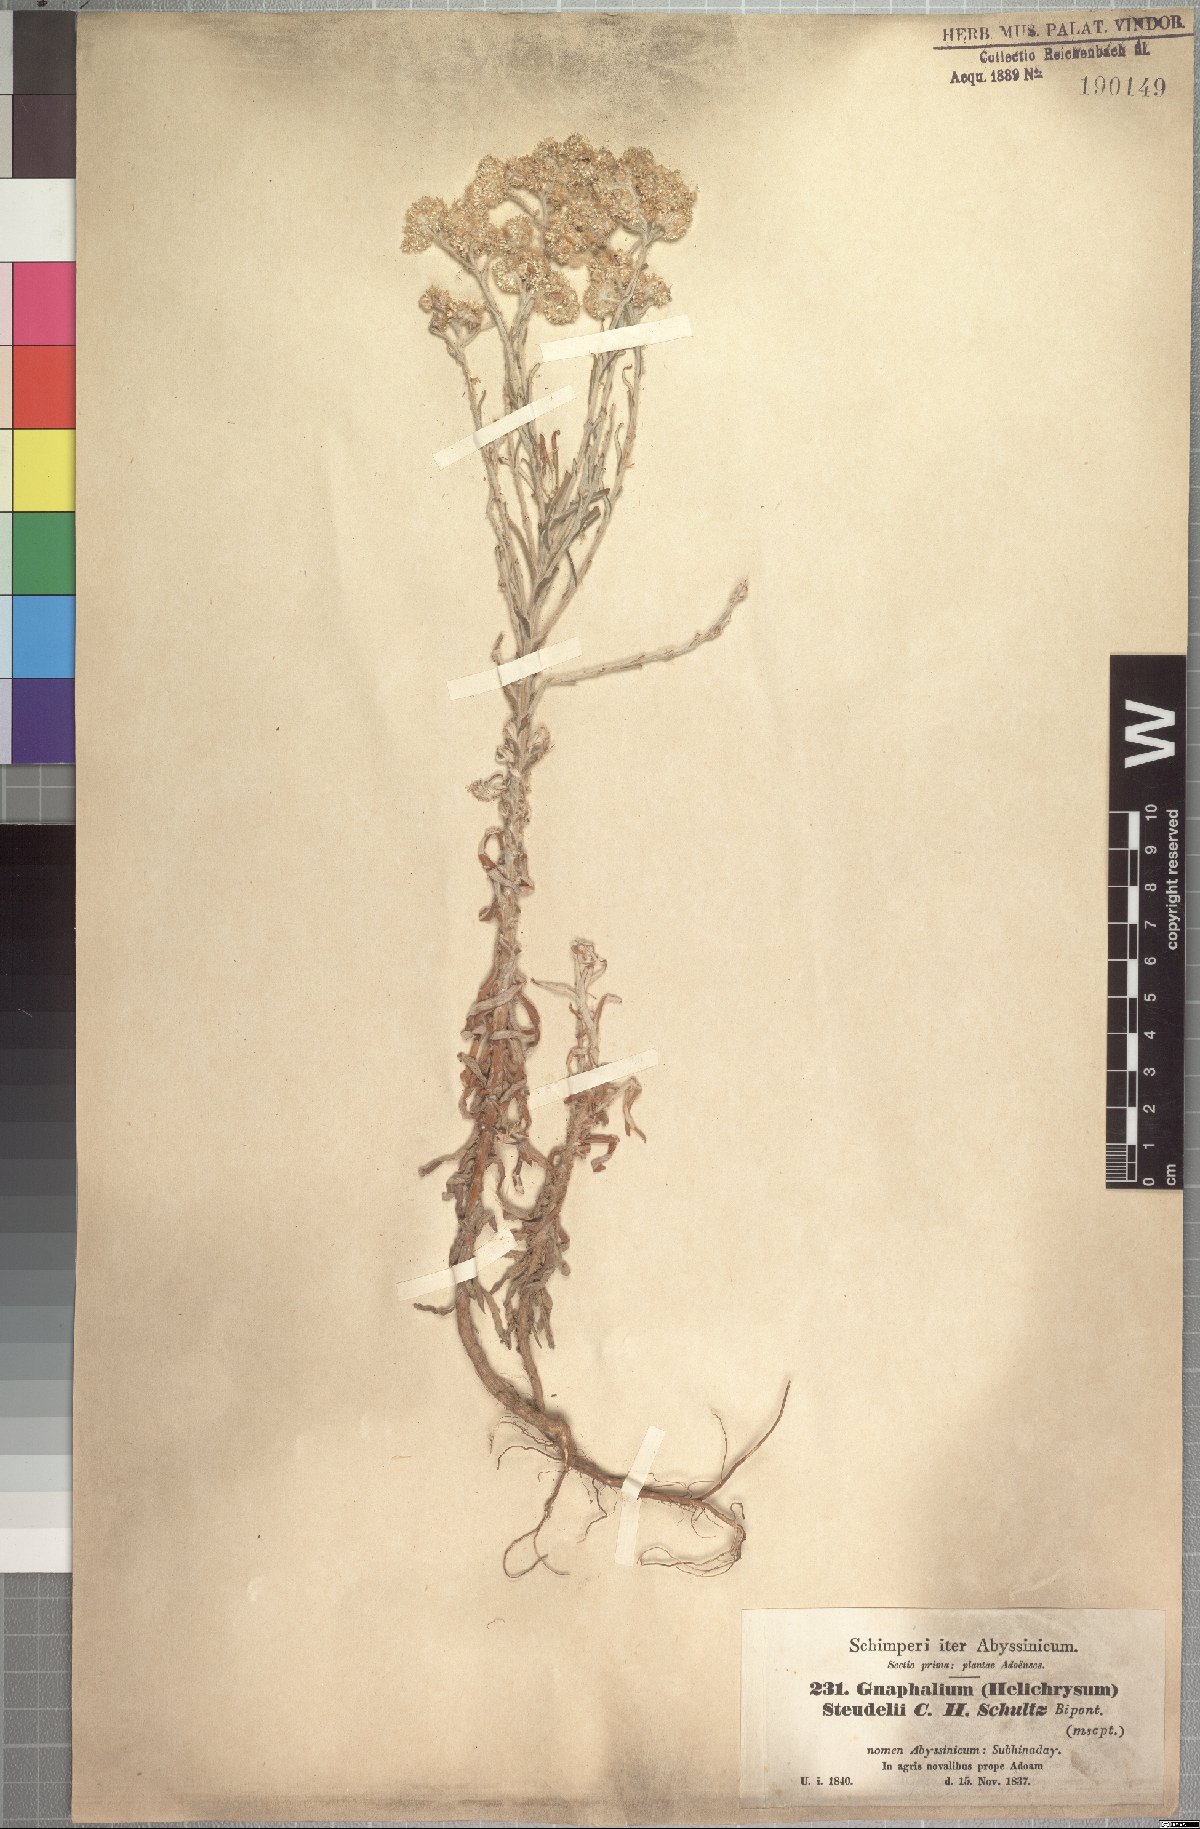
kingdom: Plantae
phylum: Tracheophyta
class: Magnoliopsida
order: Asterales
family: Asteraceae
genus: Pseudognaphalium
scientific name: Pseudognaphalium oligandrum
